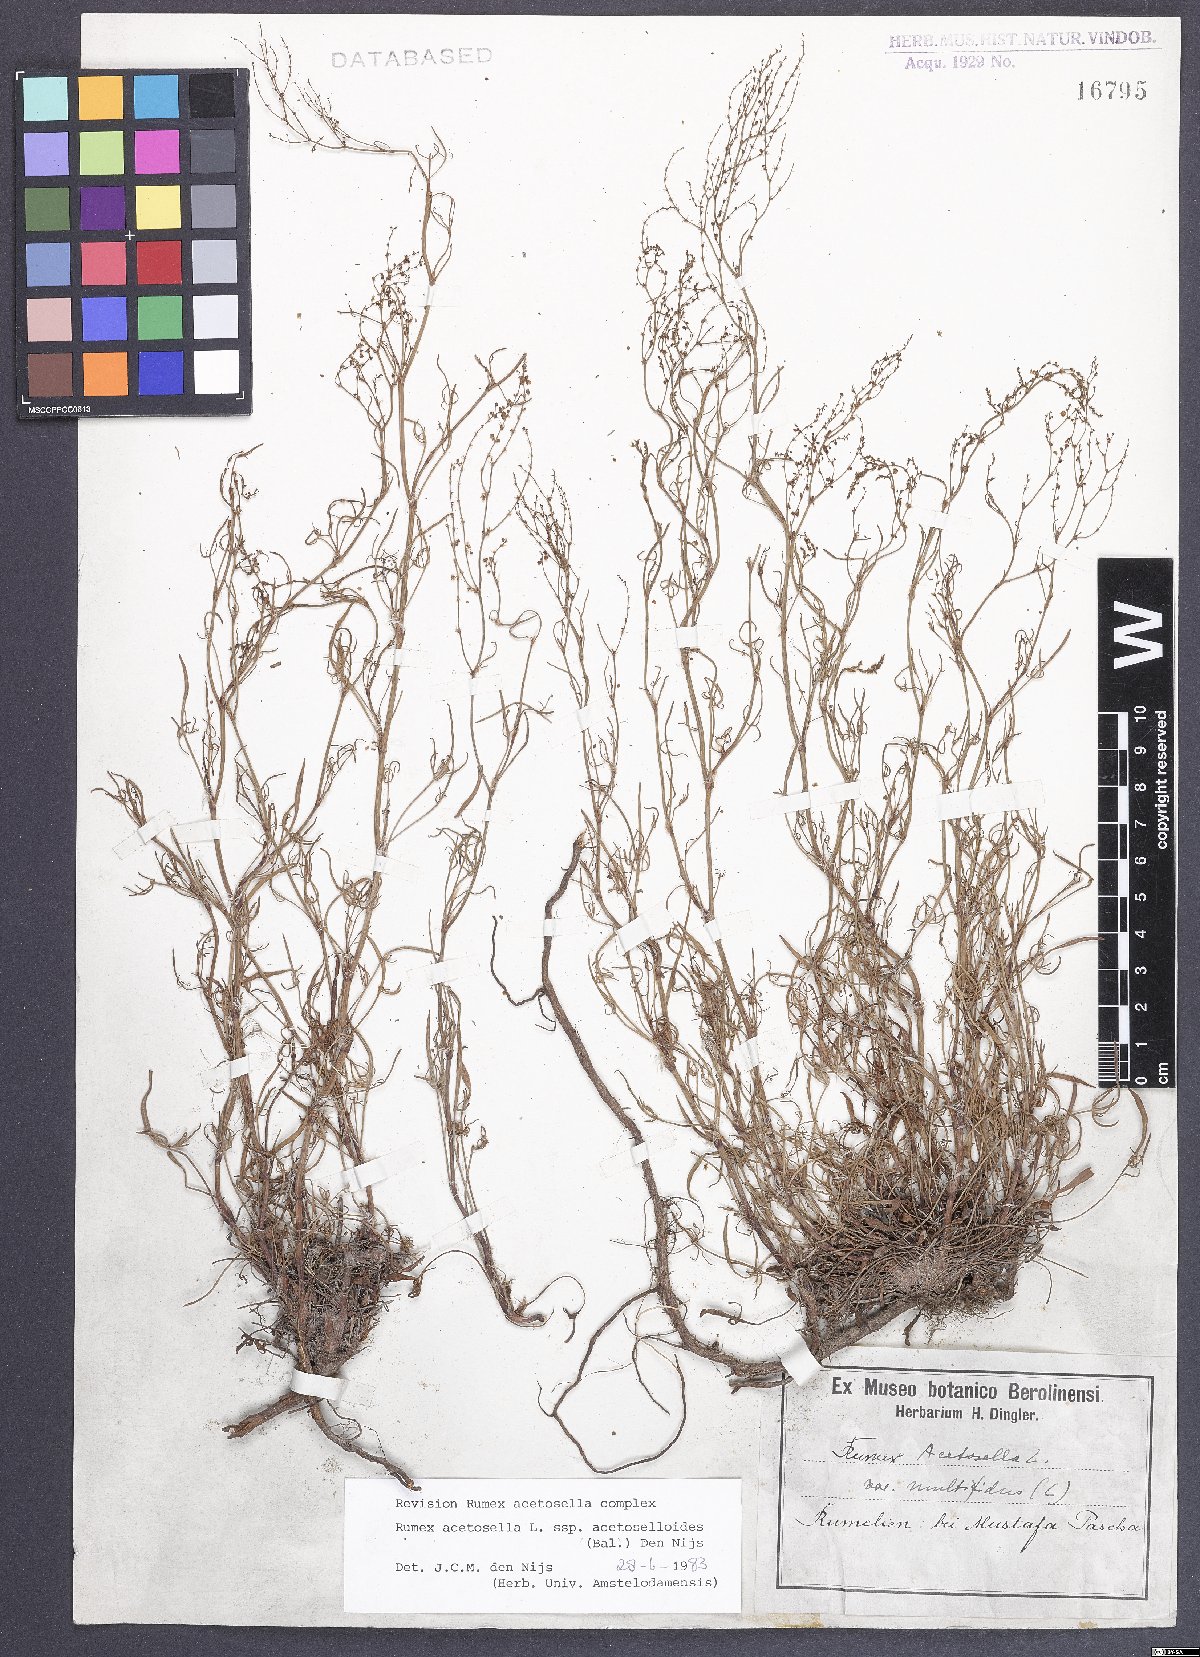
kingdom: Plantae
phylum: Tracheophyta
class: Magnoliopsida
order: Caryophyllales
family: Polygonaceae
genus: Rumex
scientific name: Rumex acetosella
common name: Common sheep sorrel
